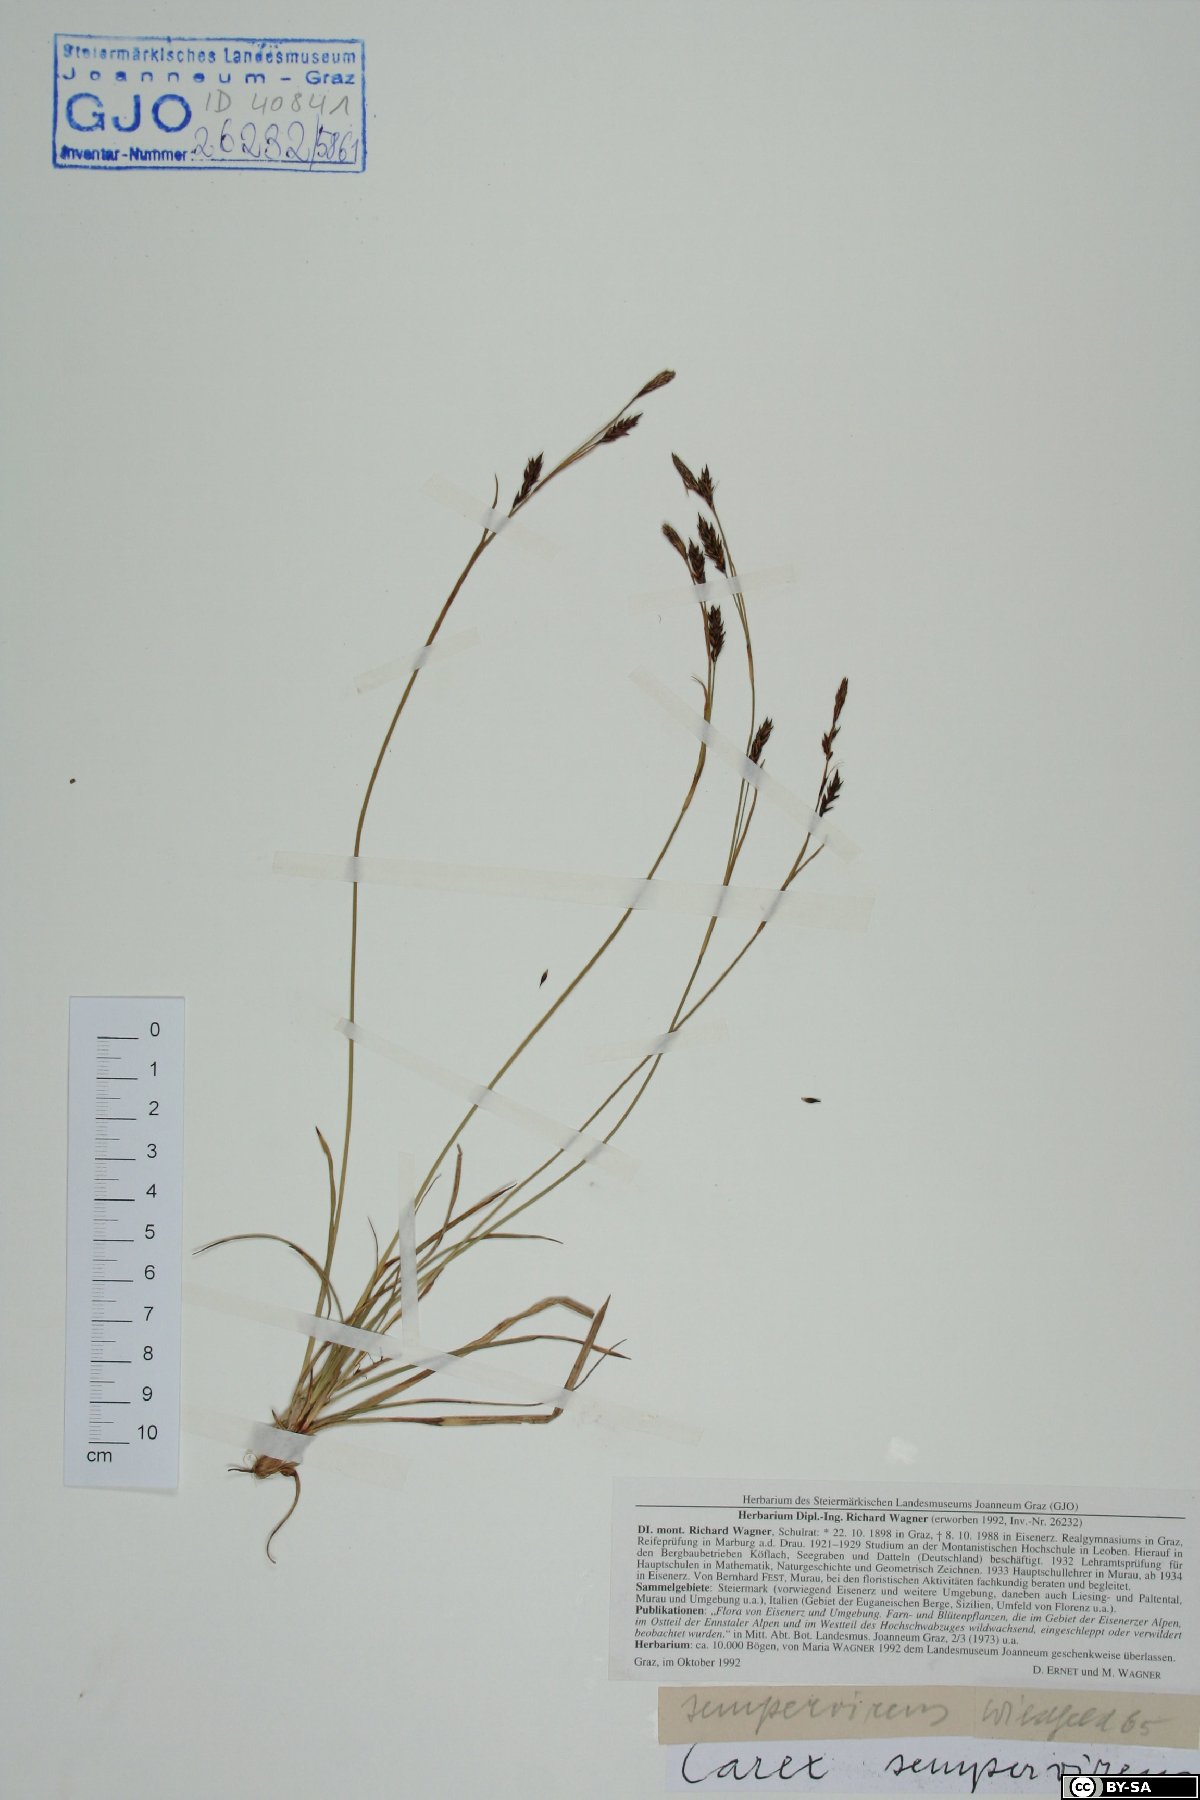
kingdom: Plantae
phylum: Tracheophyta
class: Liliopsida
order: Poales
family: Cyperaceae
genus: Carex
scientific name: Carex sempervirens
